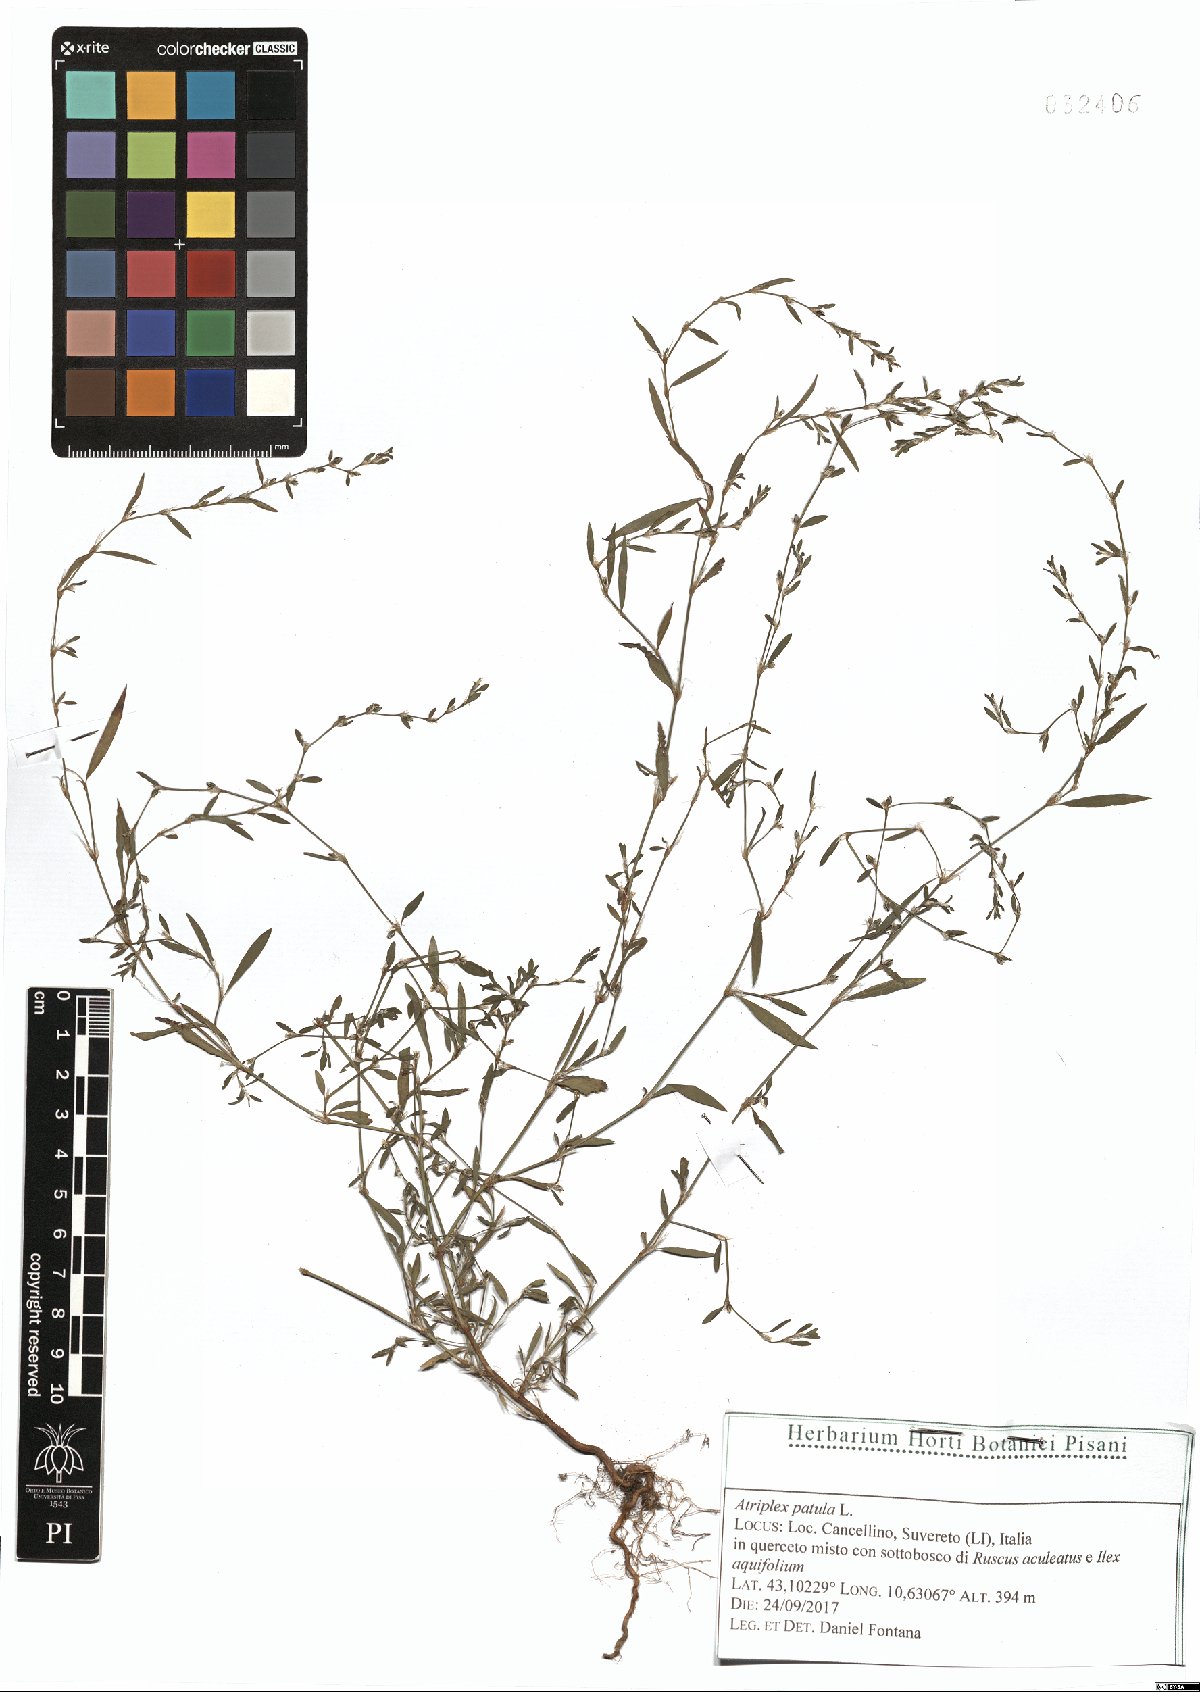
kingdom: Plantae
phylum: Tracheophyta
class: Magnoliopsida
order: Caryophyllales
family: Amaranthaceae
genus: Atriplex
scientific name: Atriplex patula
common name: Common orache
